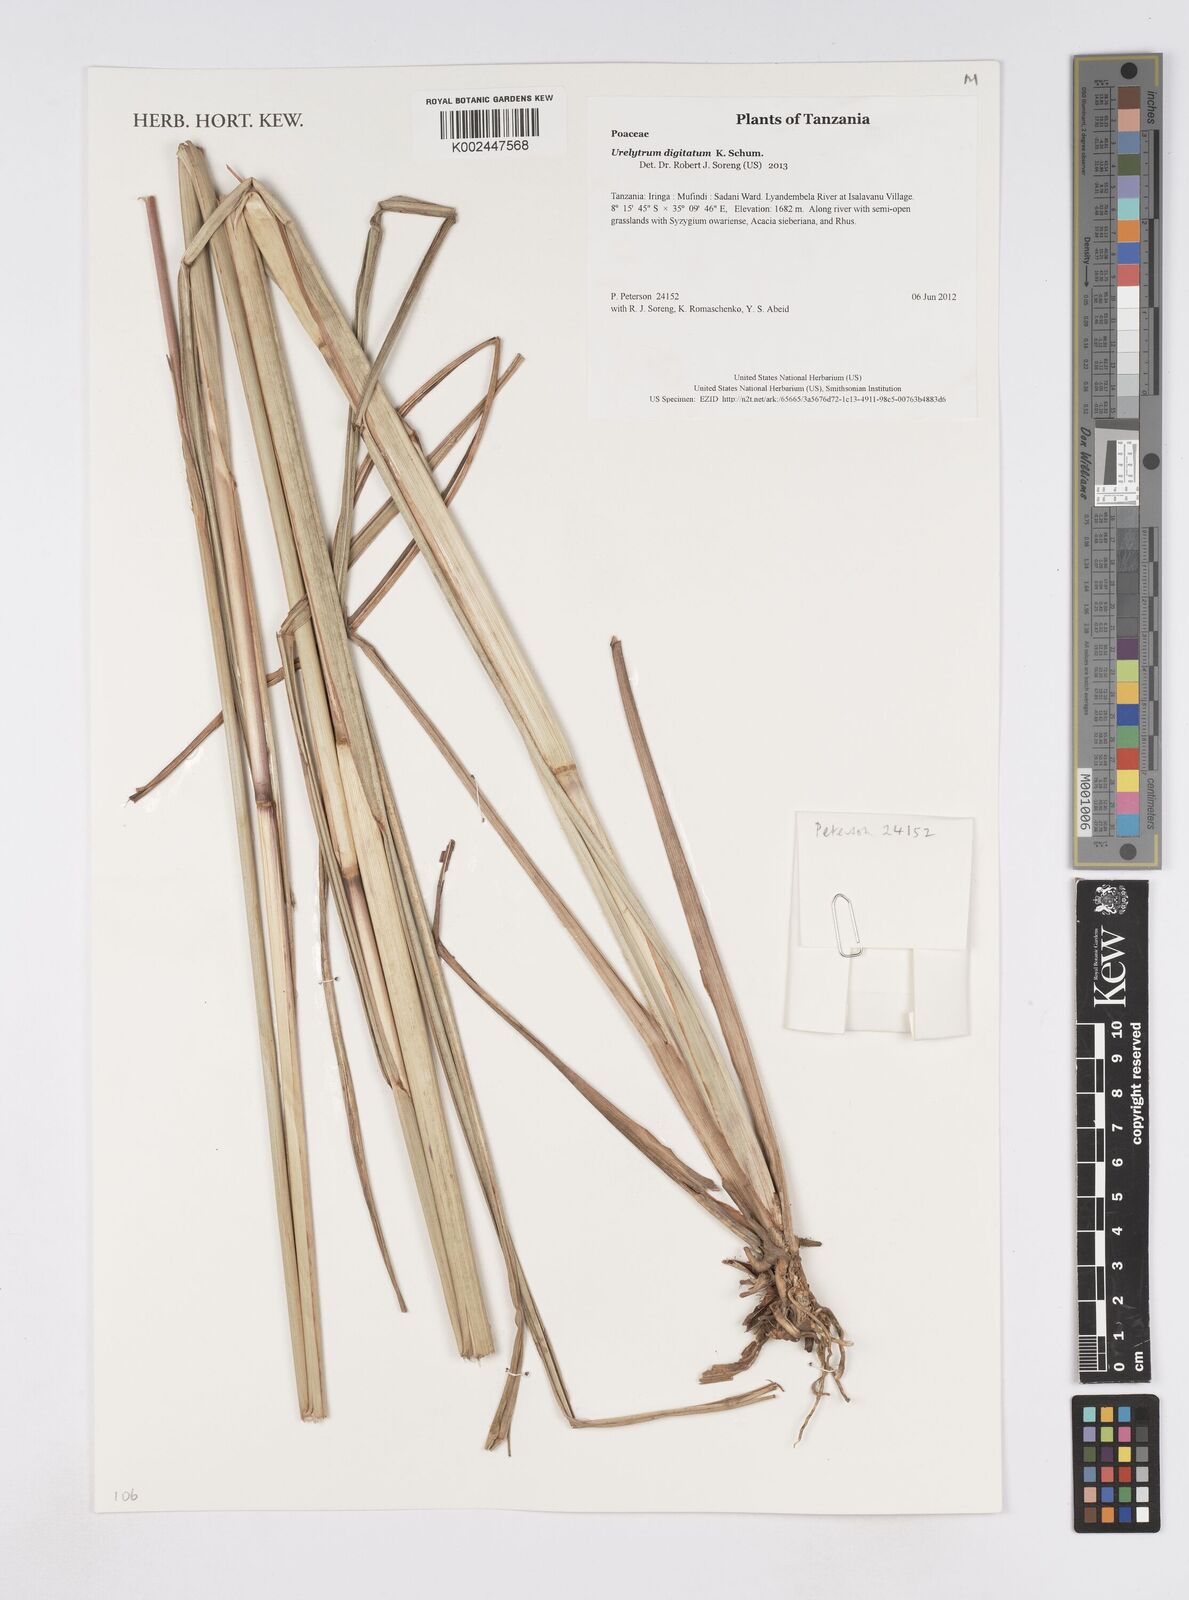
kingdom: Plantae
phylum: Tracheophyta
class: Liliopsida
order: Poales
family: Poaceae
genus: Urelytrum
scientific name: Urelytrum digitatum
